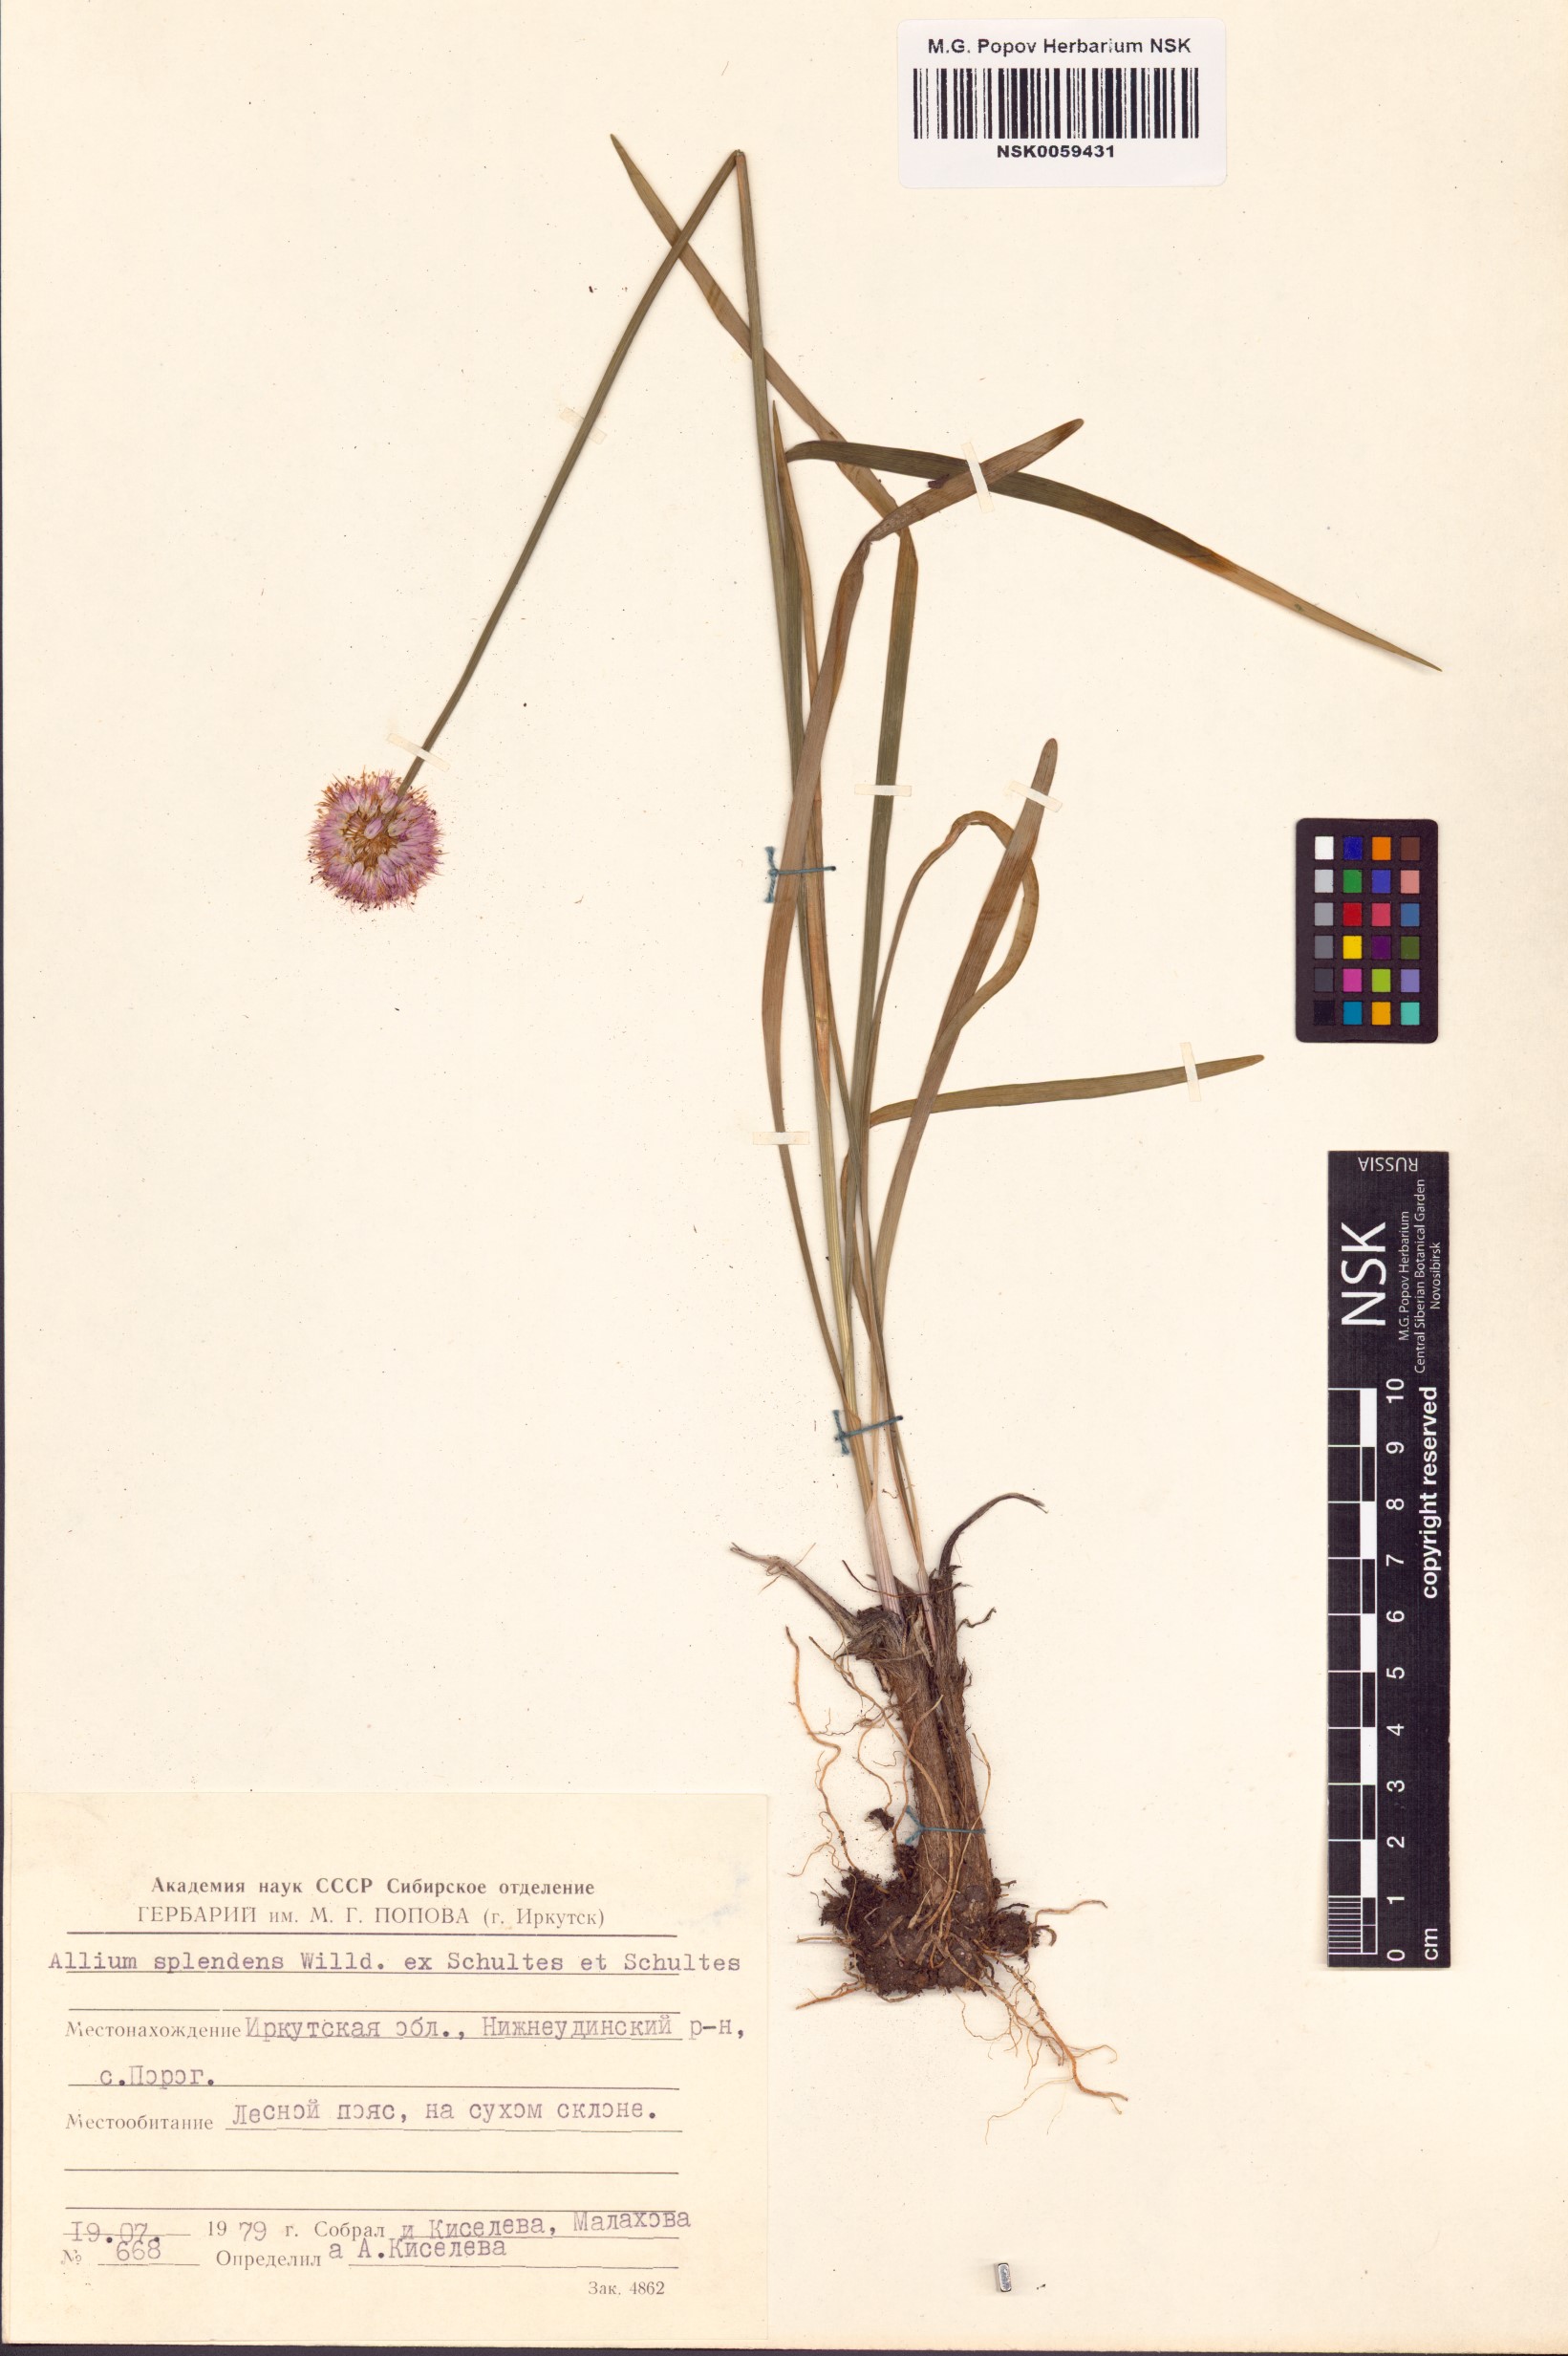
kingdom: Plantae
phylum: Tracheophyta
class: Liliopsida
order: Asparagales
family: Amaryllidaceae
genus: Allium
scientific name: Allium splendens
